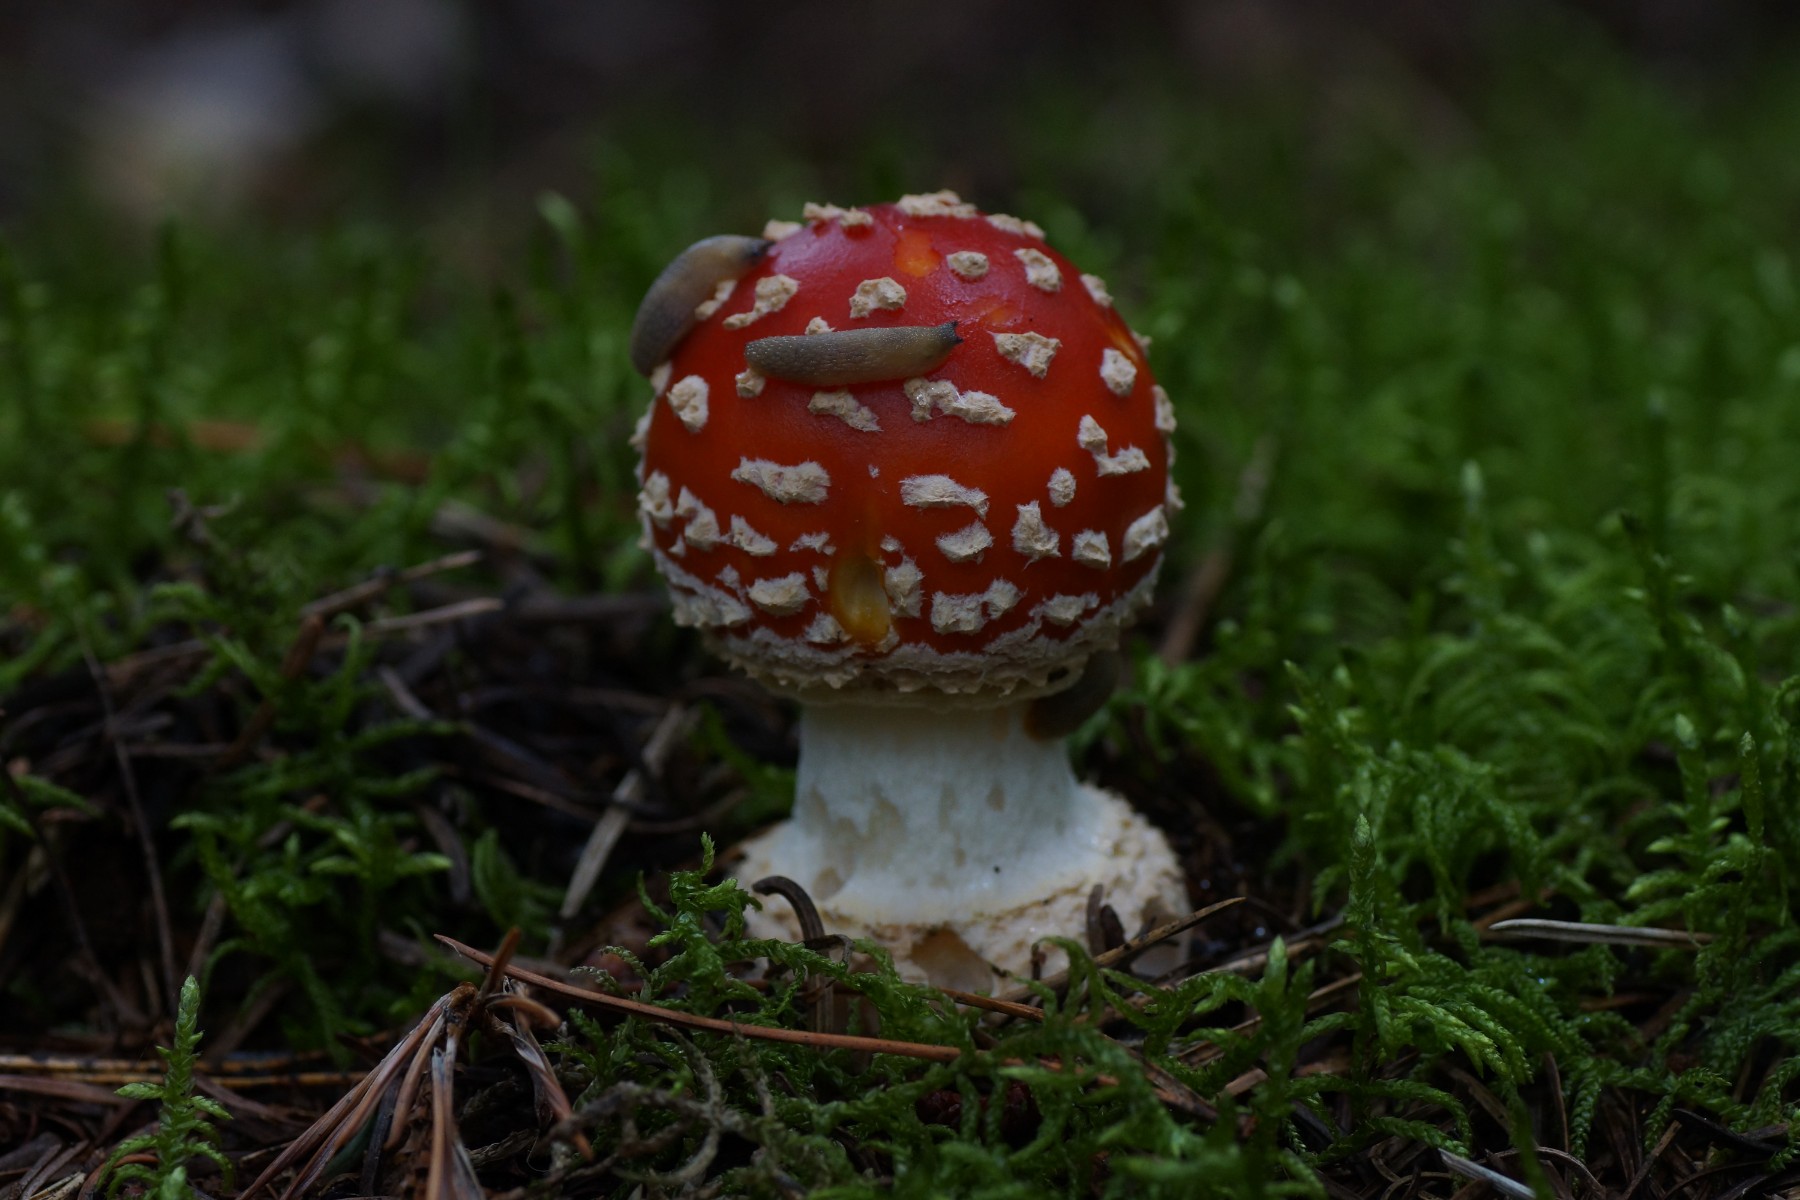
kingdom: Fungi
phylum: Basidiomycota
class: Agaricomycetes
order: Agaricales
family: Amanitaceae
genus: Amanita
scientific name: Amanita muscaria
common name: rød fluesvamp
